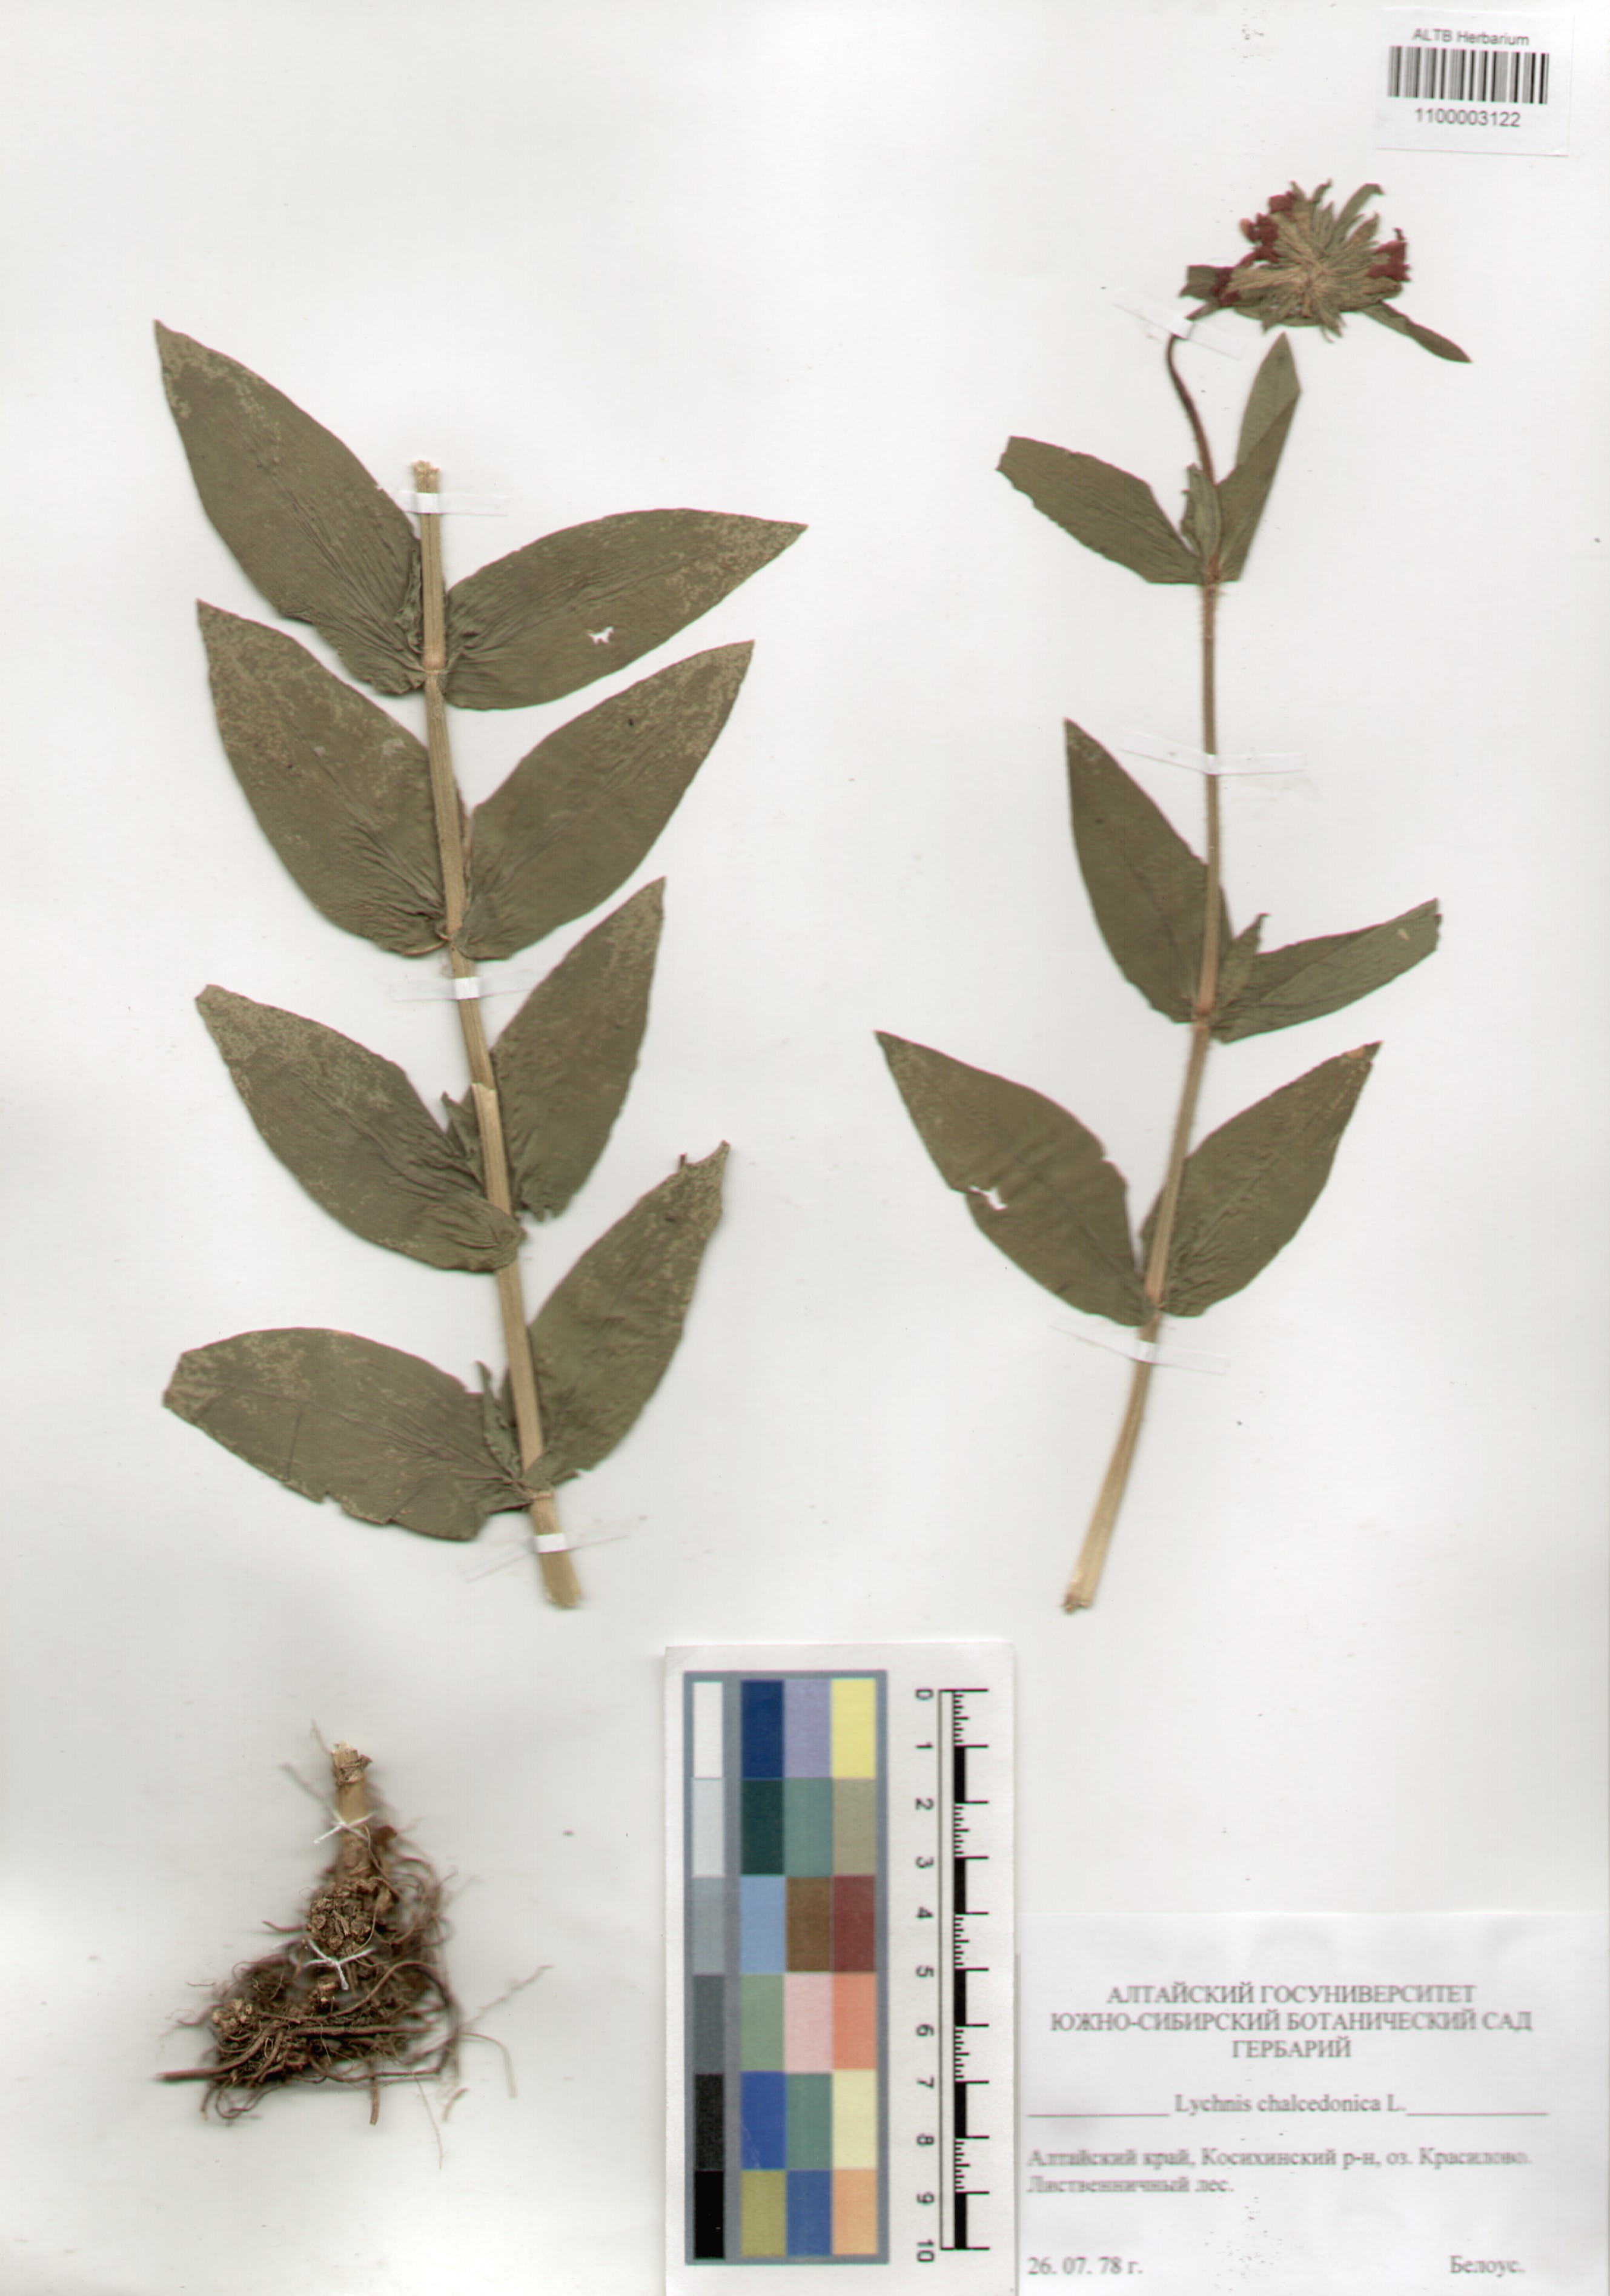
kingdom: Plantae
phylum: Tracheophyta
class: Magnoliopsida
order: Caryophyllales
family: Caryophyllaceae
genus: Silene
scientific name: Silene chalcedonica
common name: Maltese-cross
